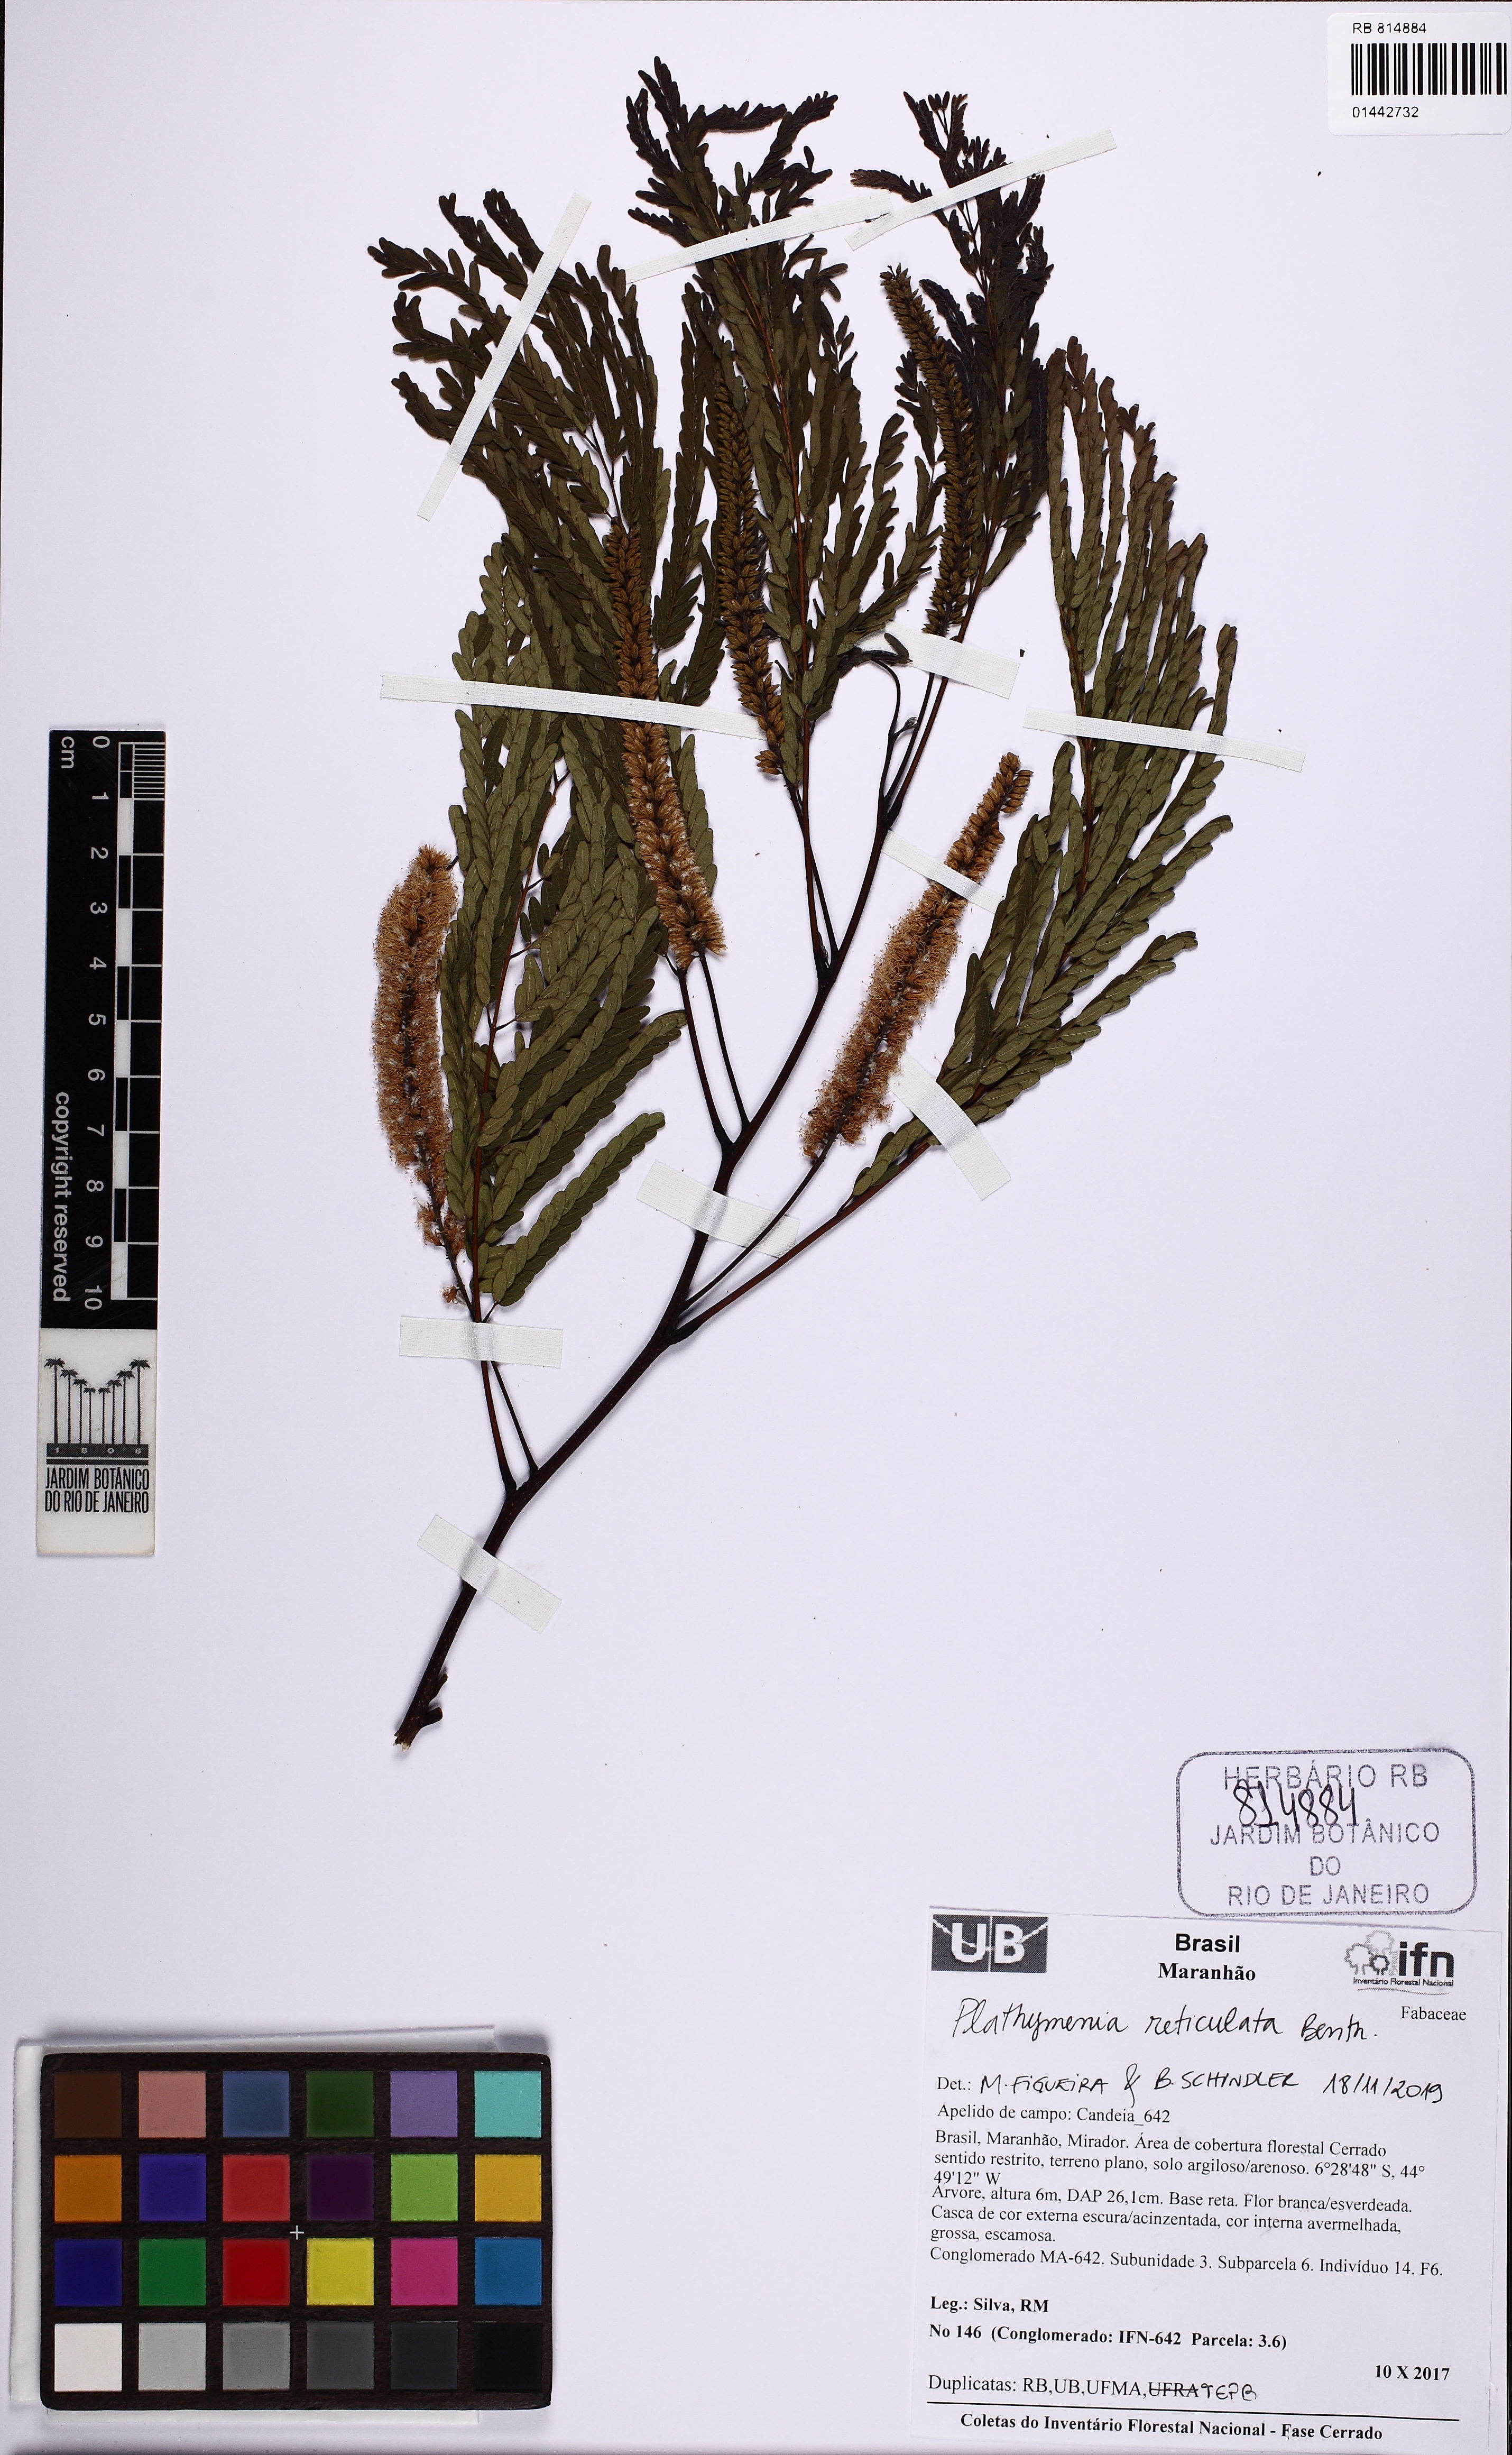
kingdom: Plantae
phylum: Tracheophyta
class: Magnoliopsida
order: Fabales
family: Fabaceae
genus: Plathymenia
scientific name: Plathymenia reticulata
